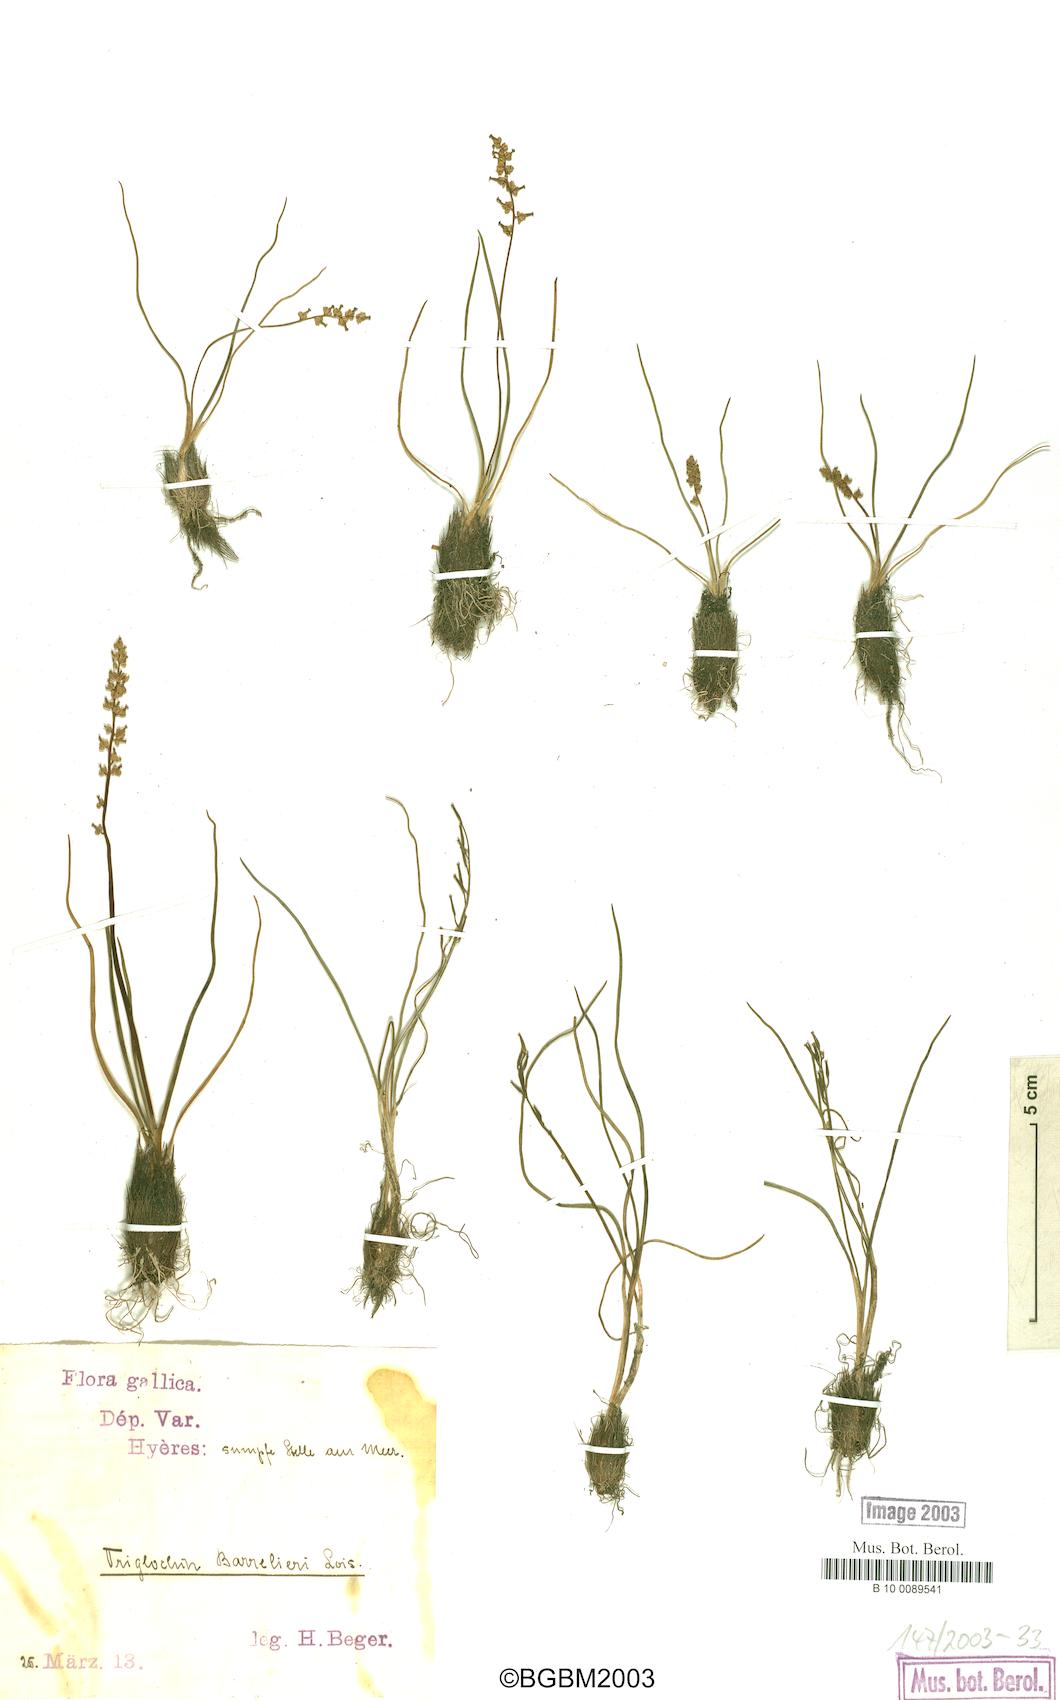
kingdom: Plantae
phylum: Tracheophyta
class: Liliopsida
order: Alismatales
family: Juncaginaceae
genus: Triglochin
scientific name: Triglochin bulbosa
